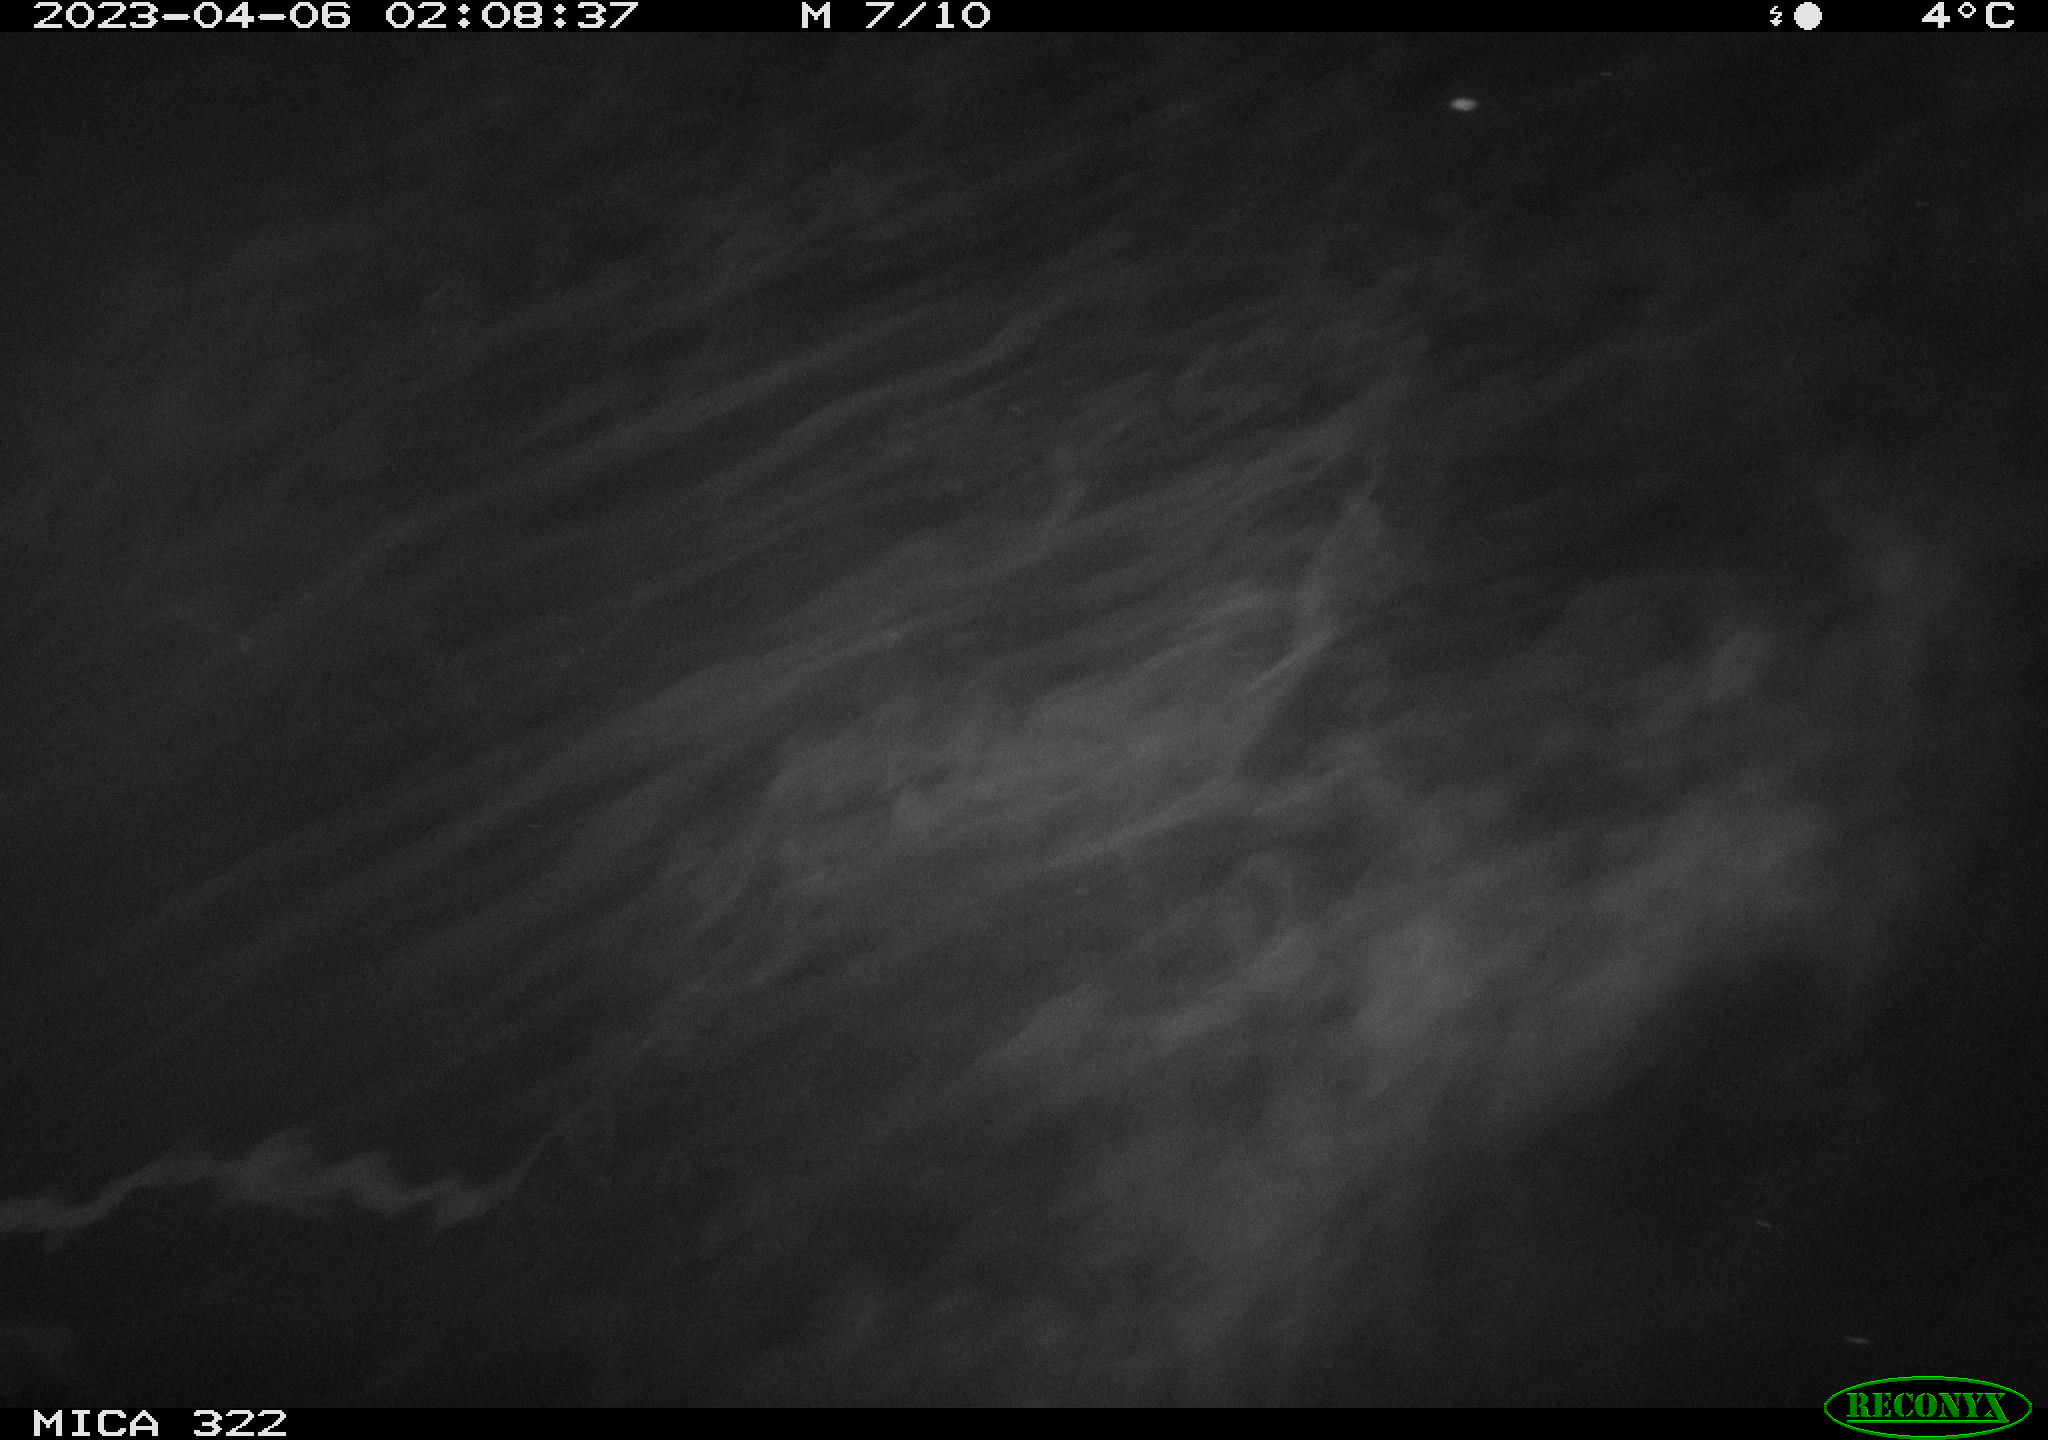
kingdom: Animalia
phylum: Chordata
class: Mammalia
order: Rodentia
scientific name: Rodentia
